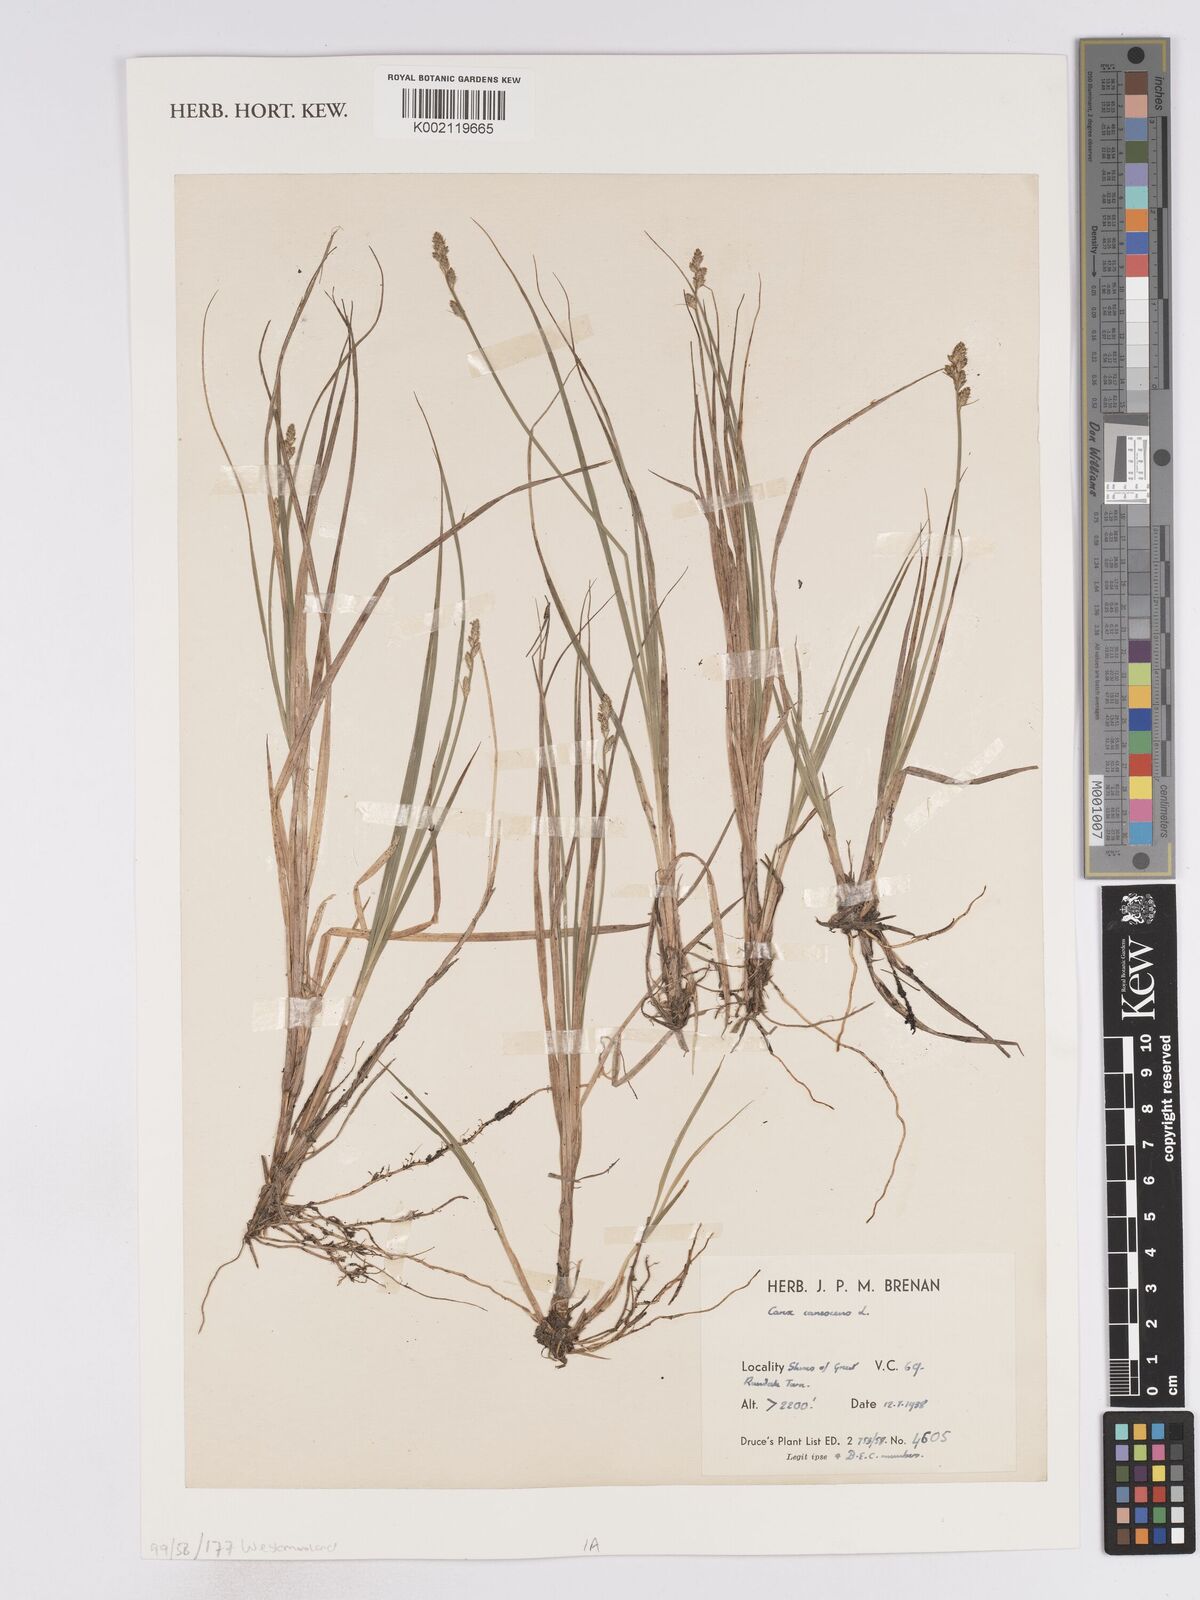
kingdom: Plantae
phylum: Tracheophyta
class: Liliopsida
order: Poales
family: Cyperaceae
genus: Carex
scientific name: Carex curta
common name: White sedge
